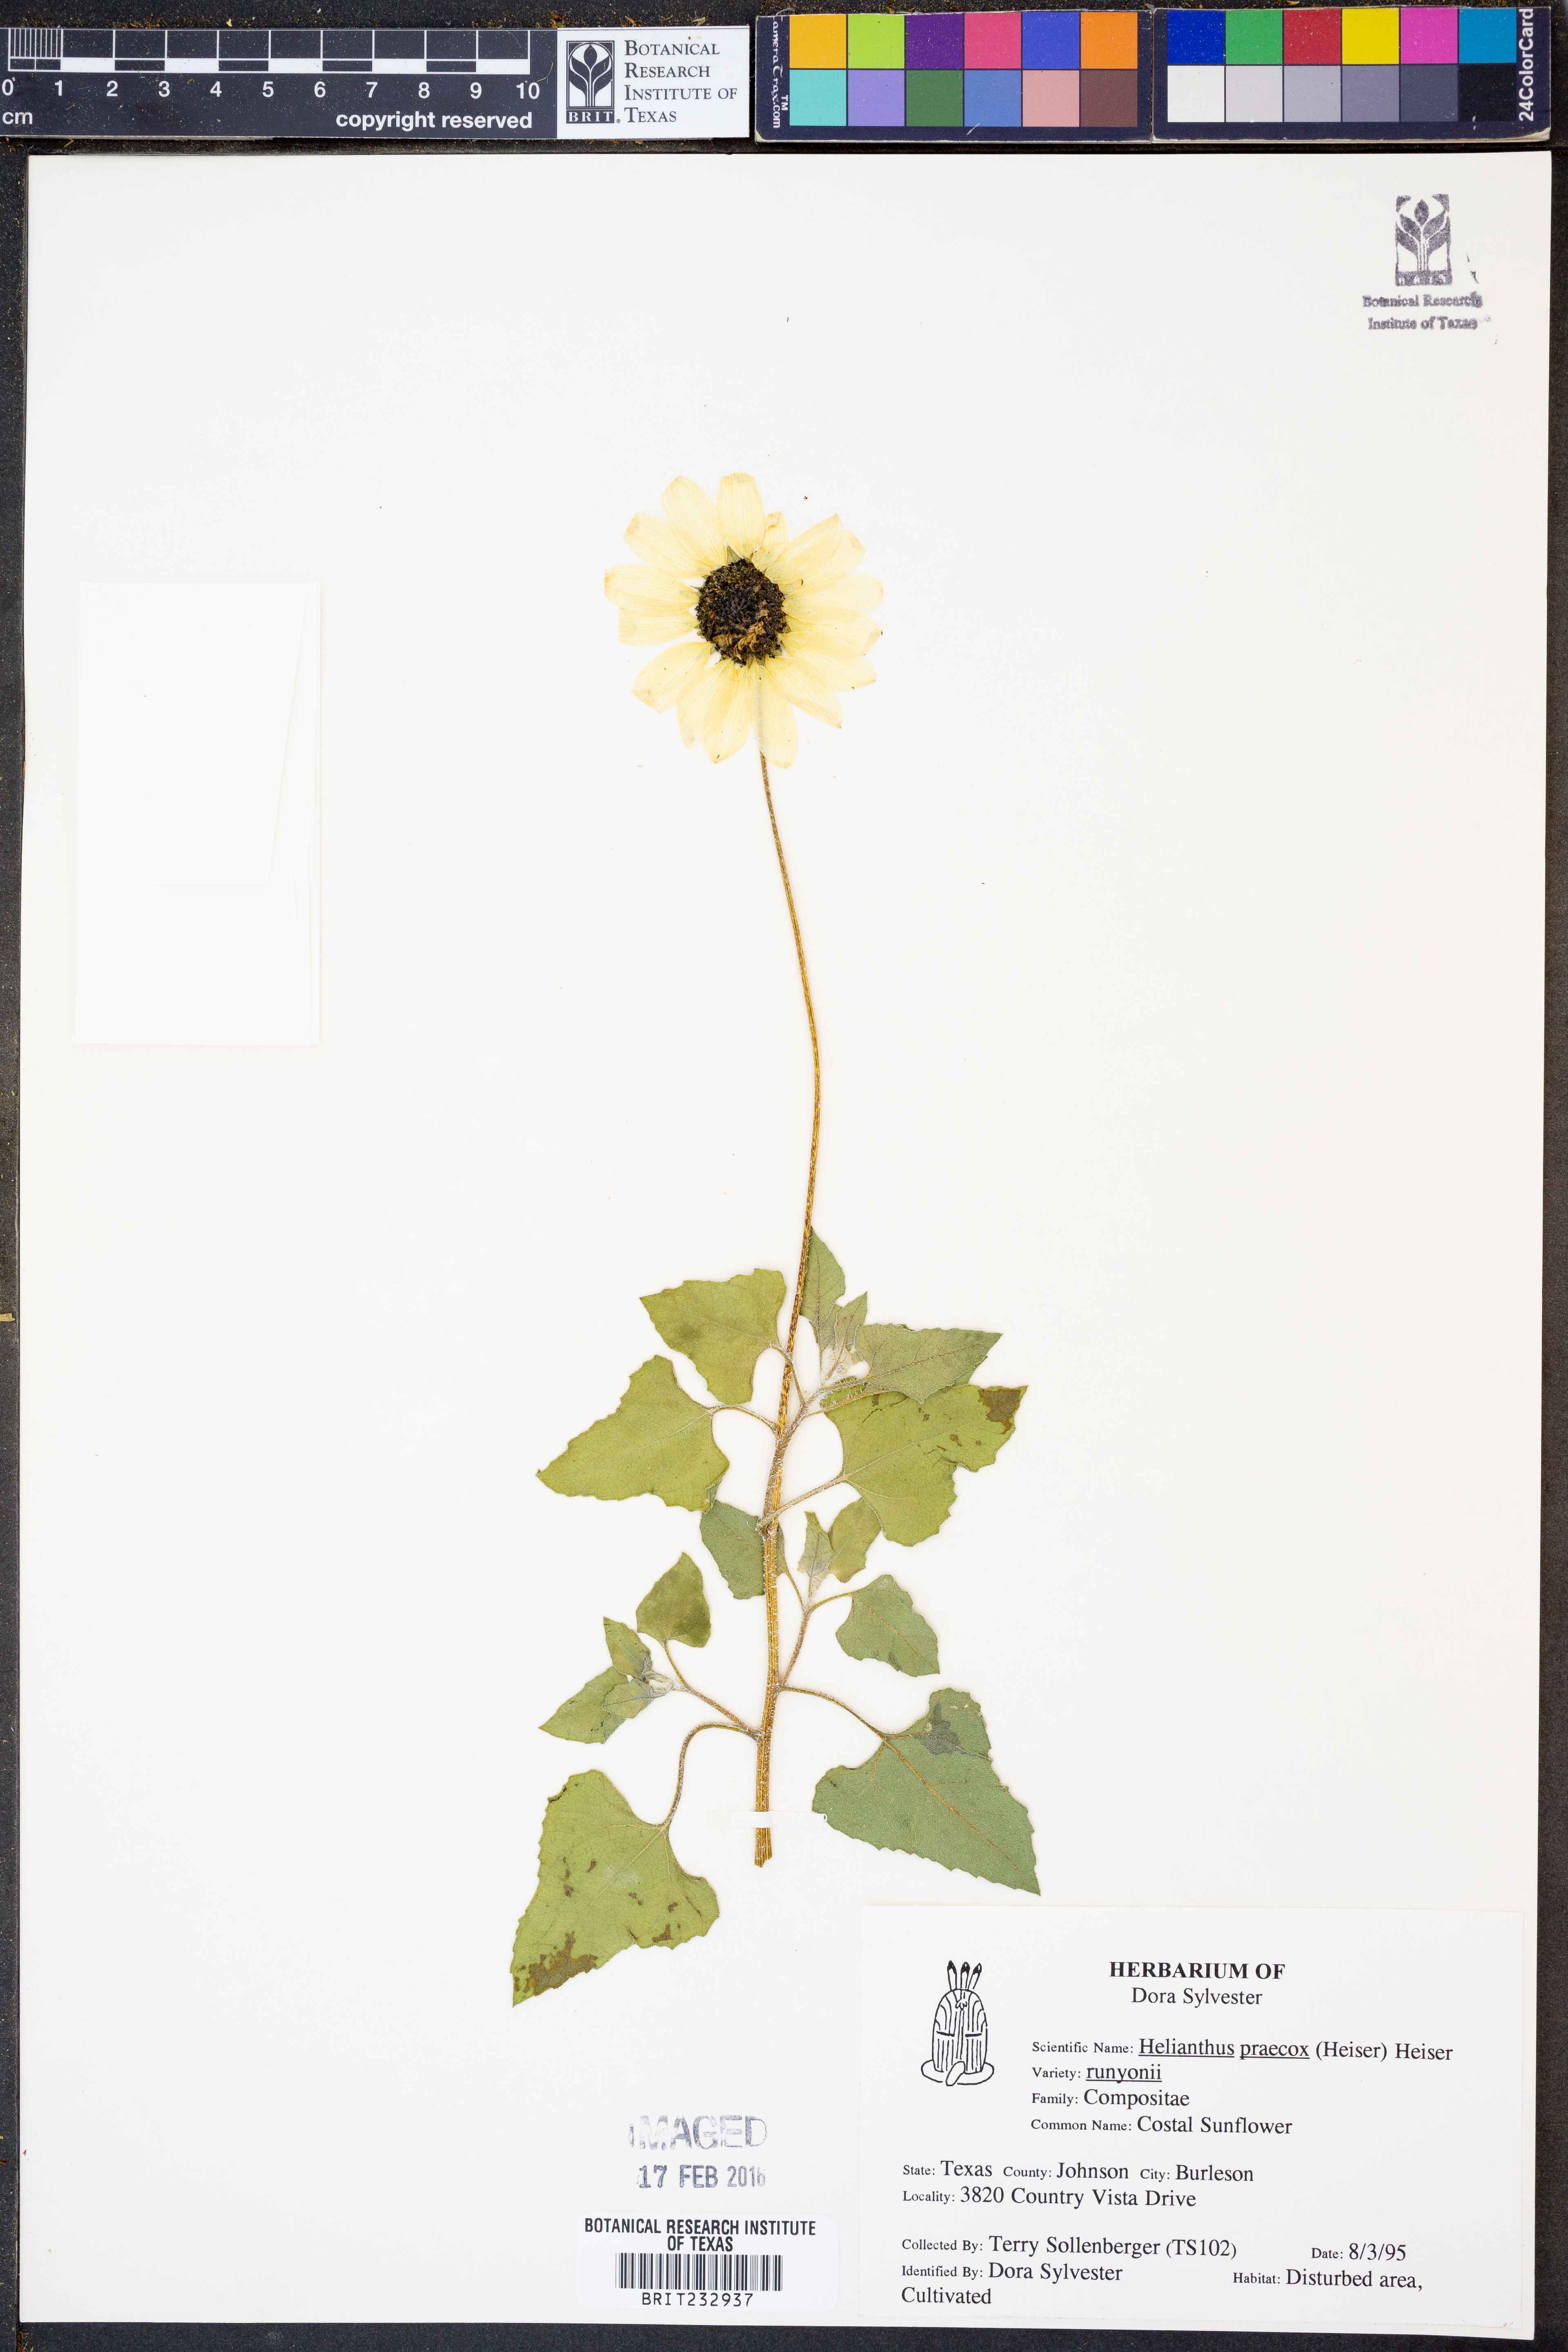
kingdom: Plantae
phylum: Tracheophyta
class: Magnoliopsida
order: Asterales
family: Asteraceae
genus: Helianthus
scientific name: Helianthus praecox
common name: Texas sunflower
